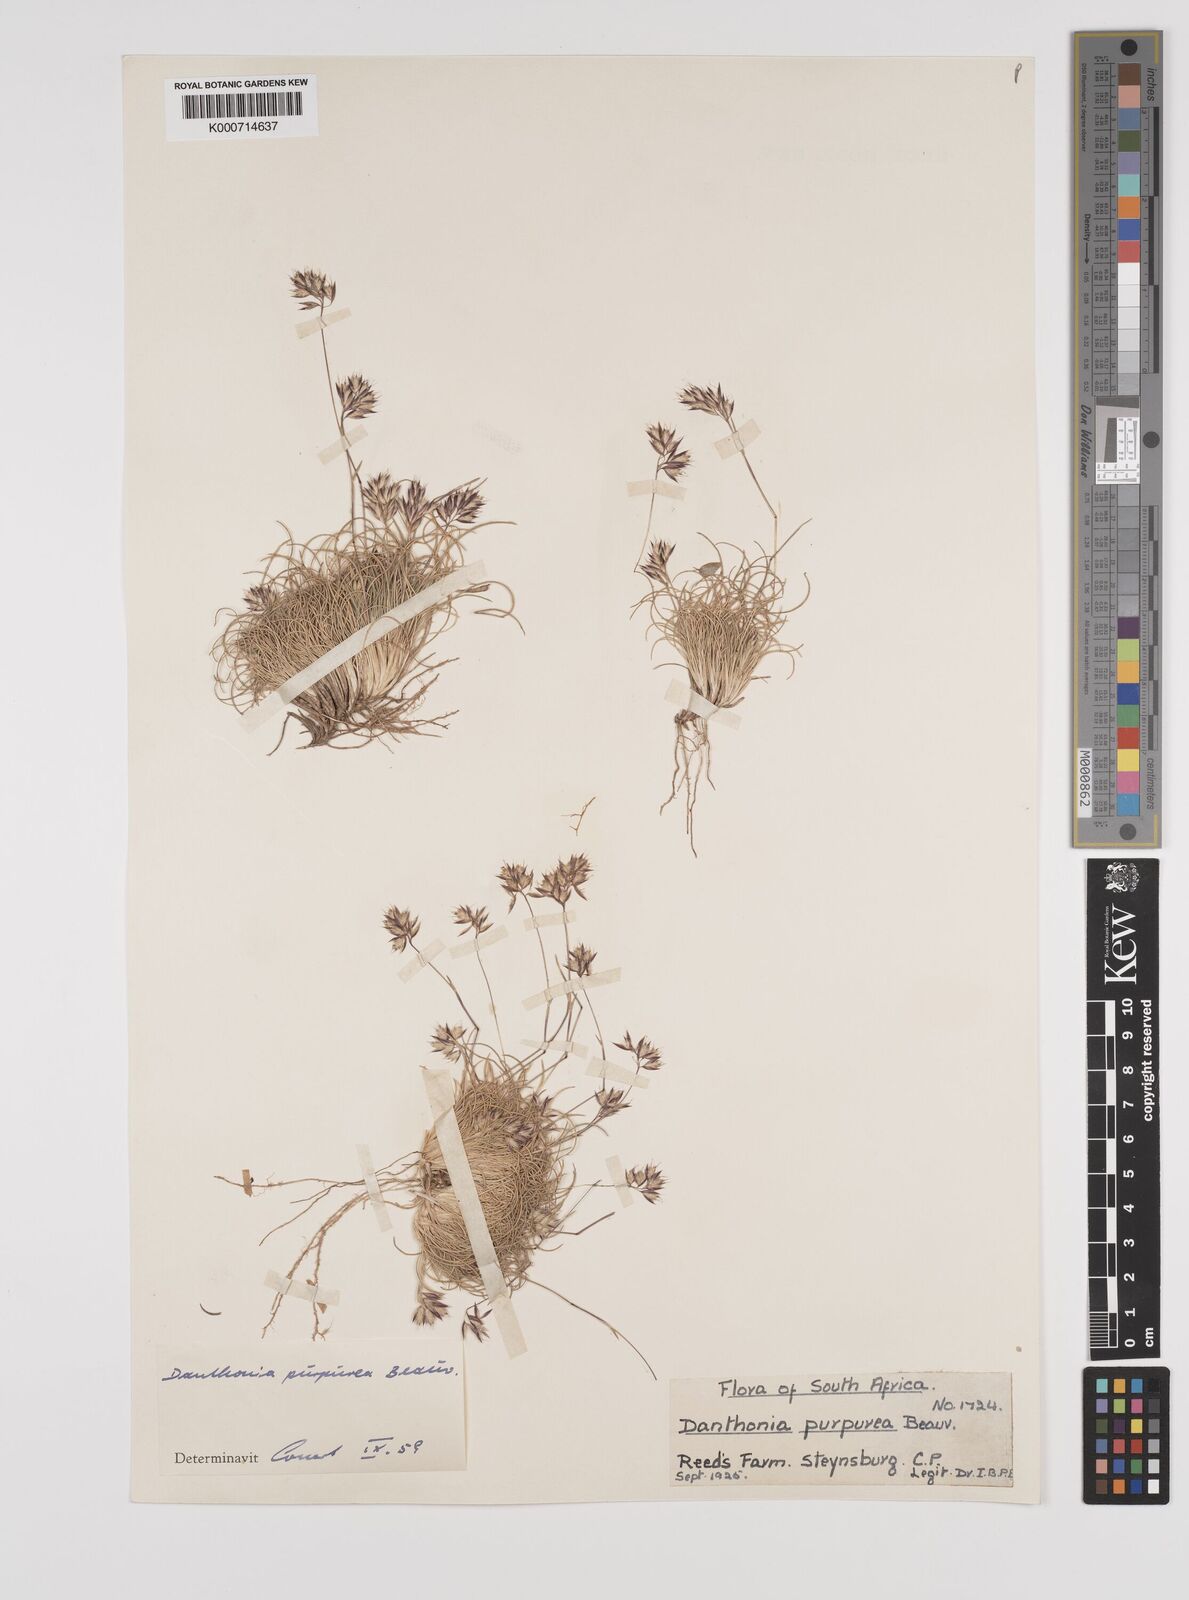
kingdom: Plantae
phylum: Tracheophyta
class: Liliopsida
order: Poales
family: Poaceae
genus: Rytidosperma
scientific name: Rytidosperma
